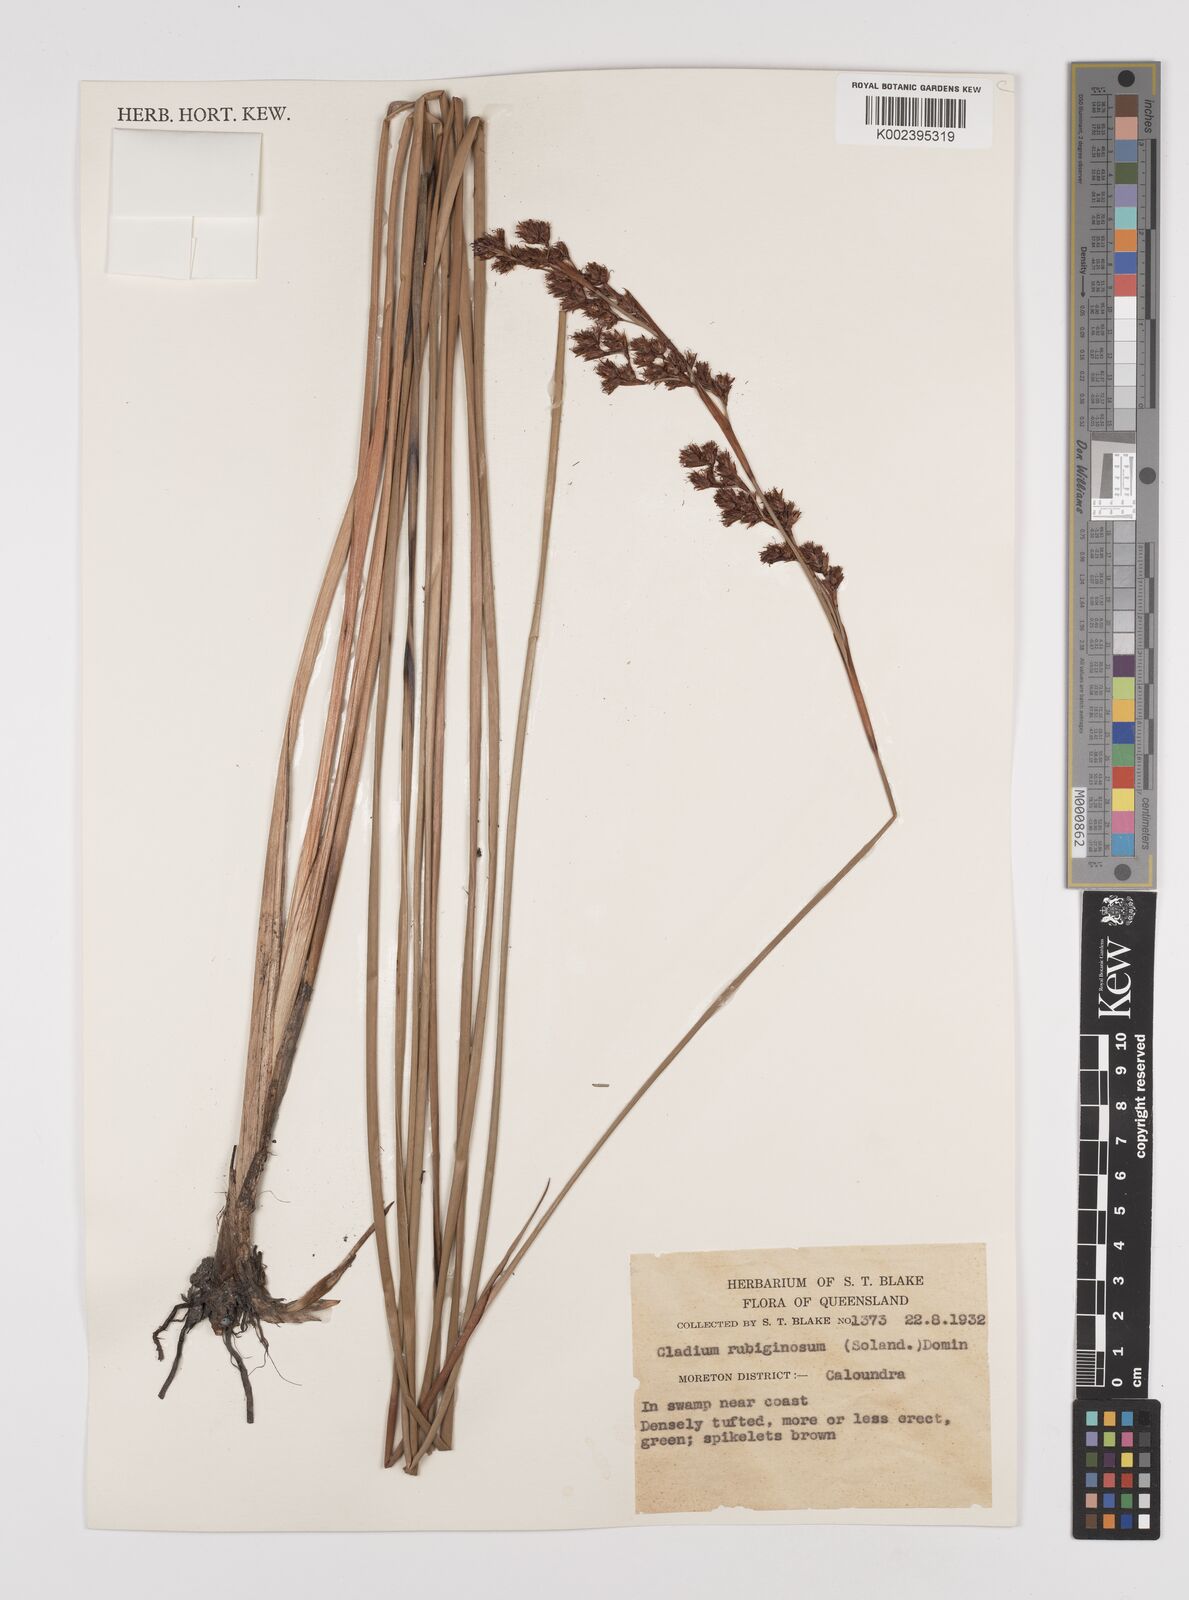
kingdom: Plantae
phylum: Tracheophyta
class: Liliopsida
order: Poales
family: Cyperaceae
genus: Machaerina
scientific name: Machaerina rubiginosa
